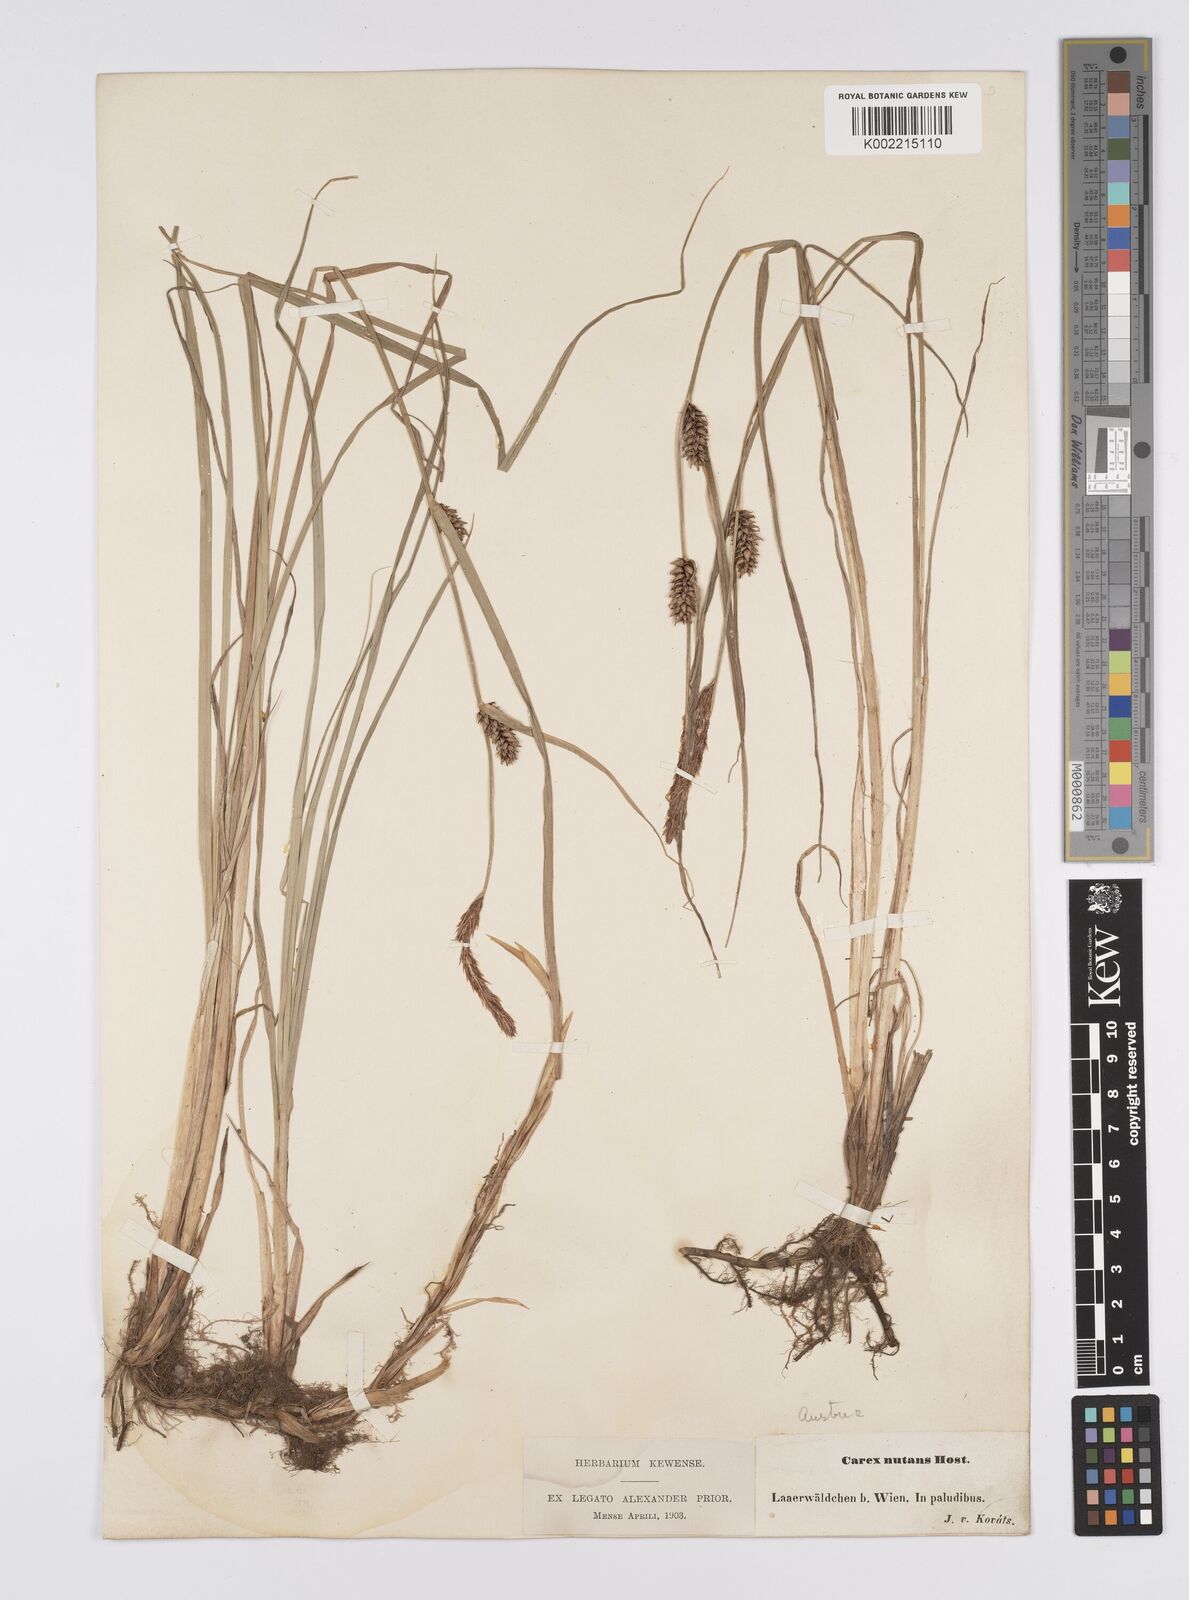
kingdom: Plantae
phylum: Tracheophyta
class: Liliopsida
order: Poales
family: Cyperaceae
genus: Carex
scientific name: Carex melanostachya
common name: Black-spiked sedge
